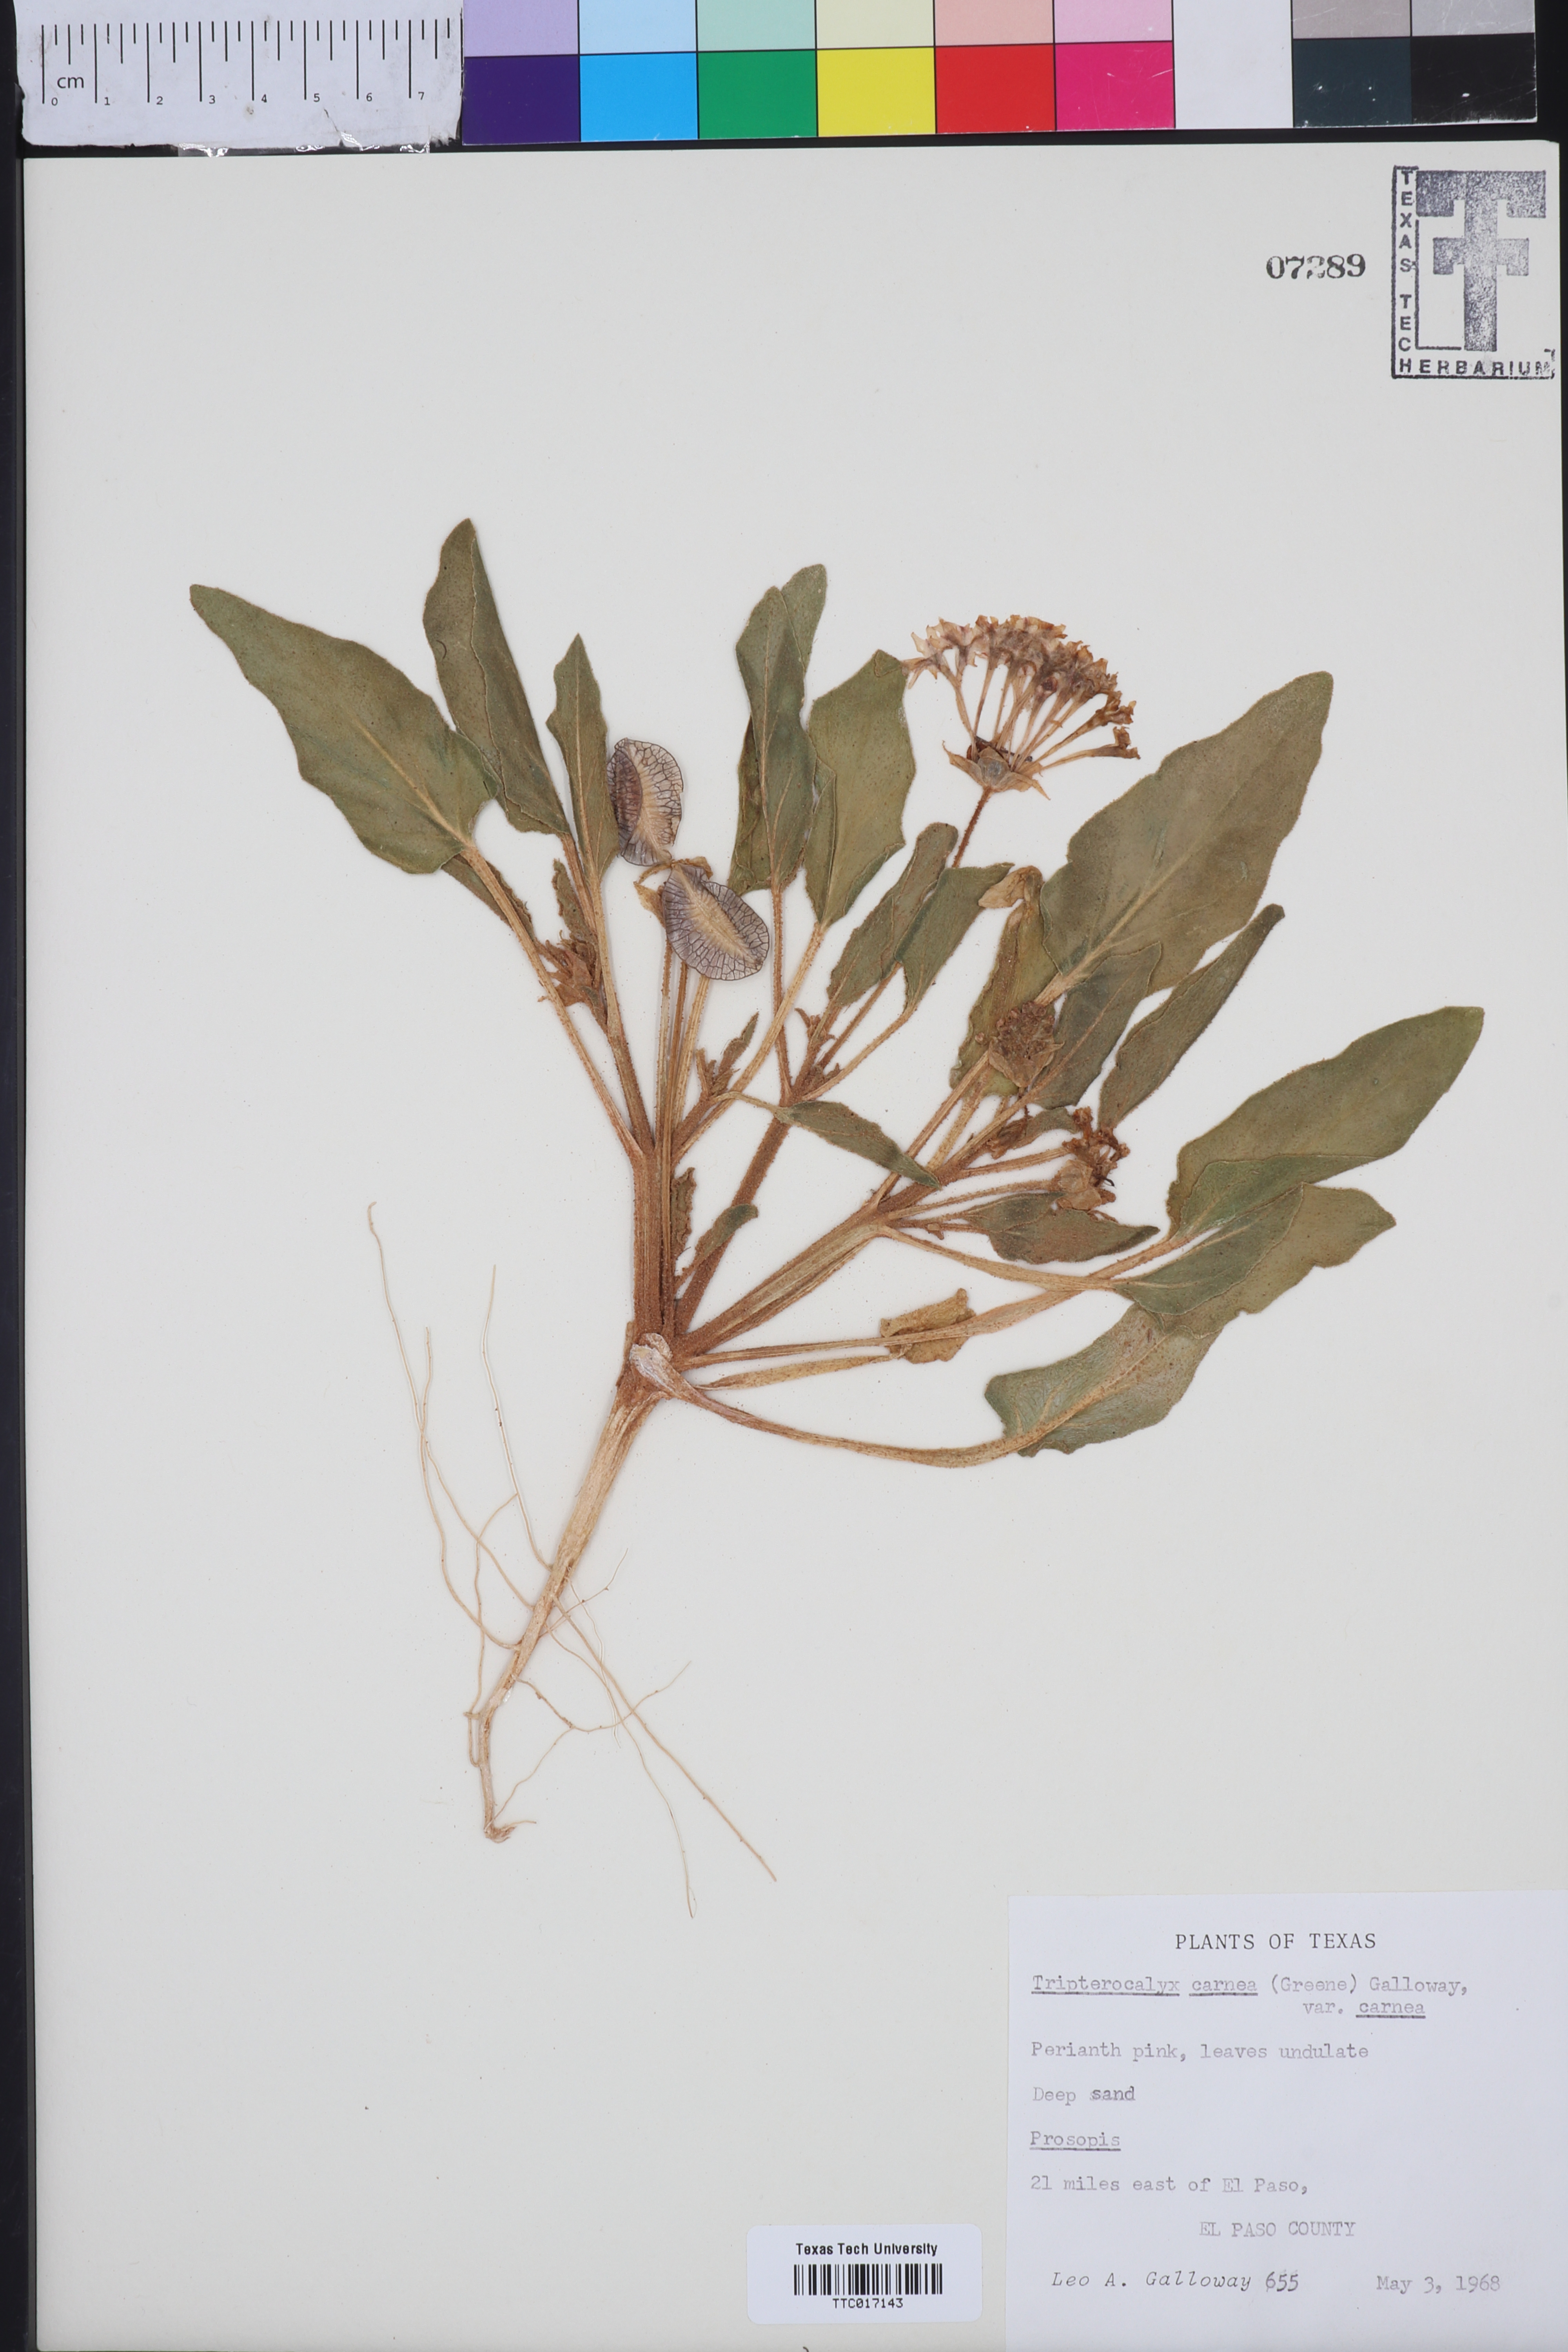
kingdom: Plantae
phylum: Tracheophyta
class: Magnoliopsida
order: Caryophyllales
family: Nyctaginaceae
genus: Tripterocalyx
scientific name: Tripterocalyx carneus
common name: Winged sandpuffs
